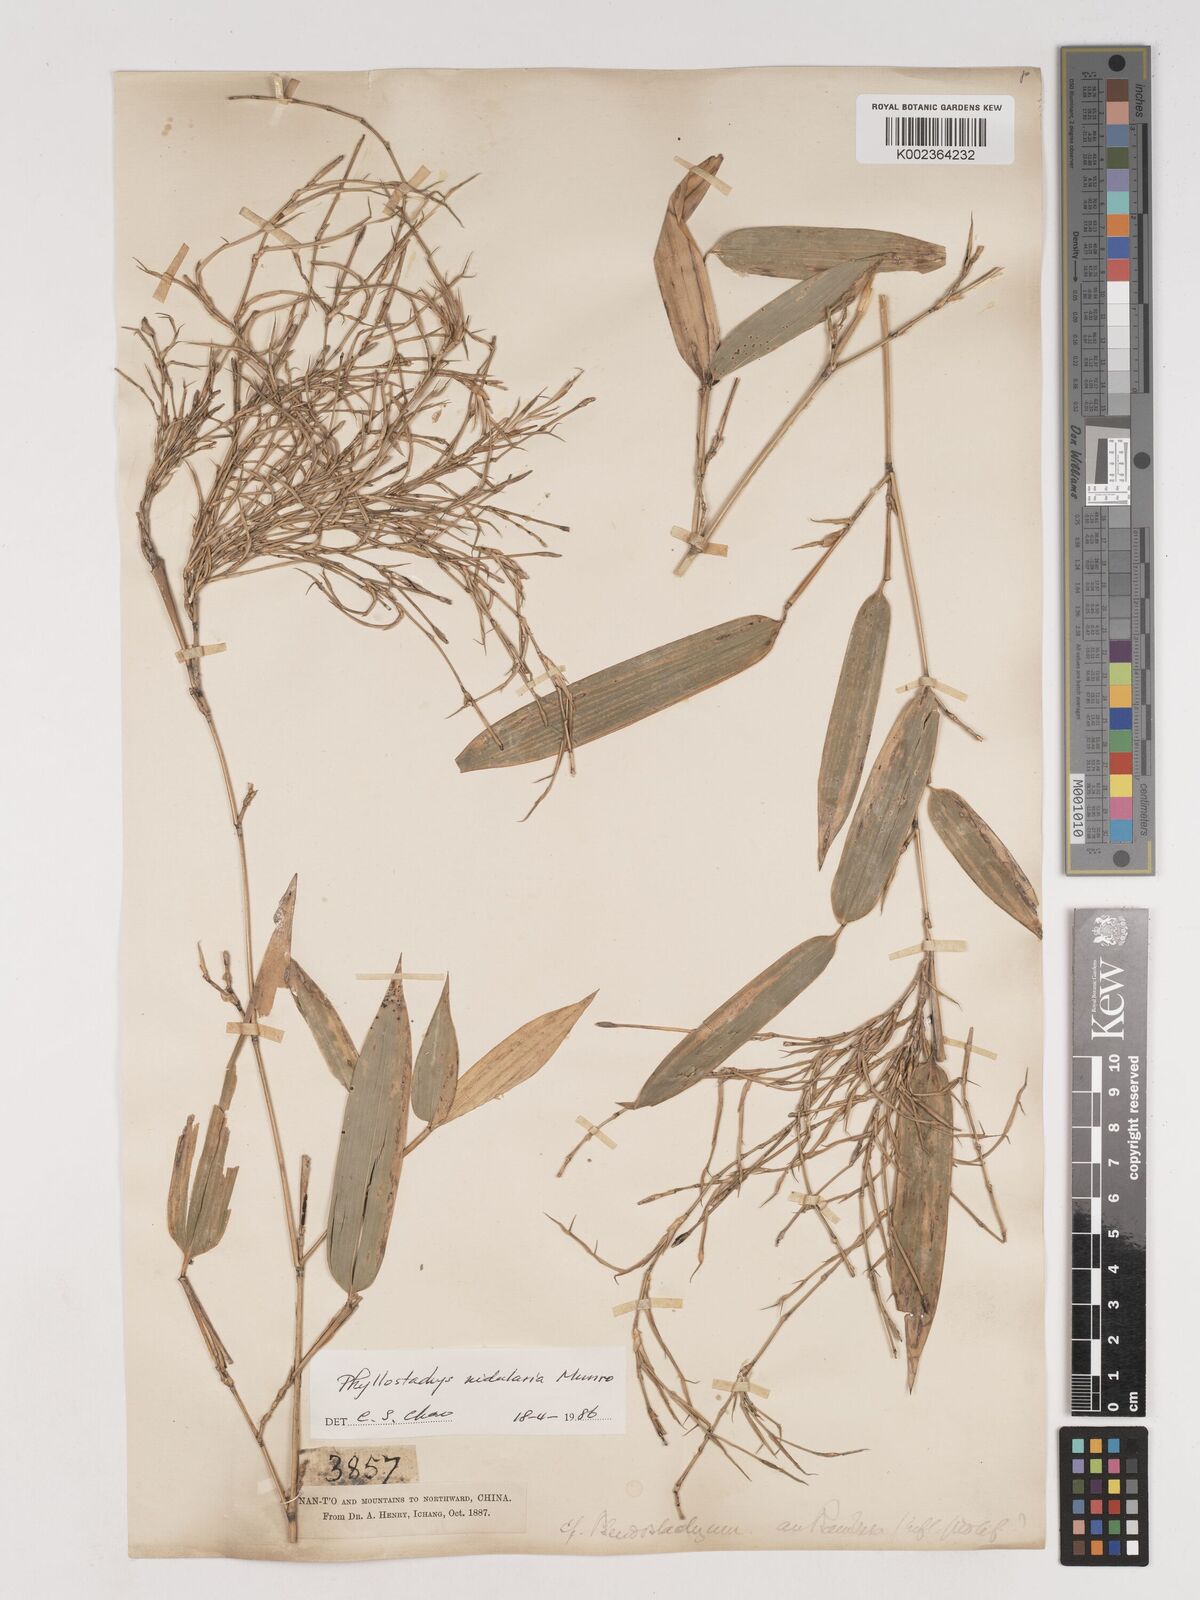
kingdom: Plantae
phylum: Tracheophyta
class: Liliopsida
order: Poales
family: Poaceae
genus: Phyllostachys
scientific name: Phyllostachys nidularia
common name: Broom bamboo
